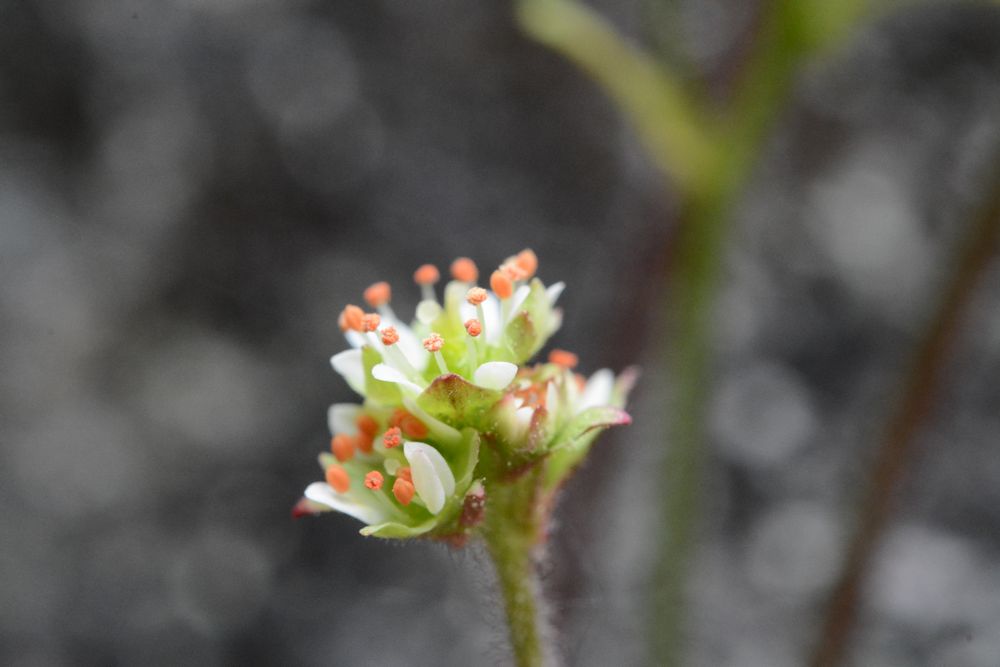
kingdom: Plantae
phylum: Tracheophyta
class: Magnoliopsida
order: Saxifragales
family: Saxifragaceae
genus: Micranthes
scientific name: Micranthes nivalis
